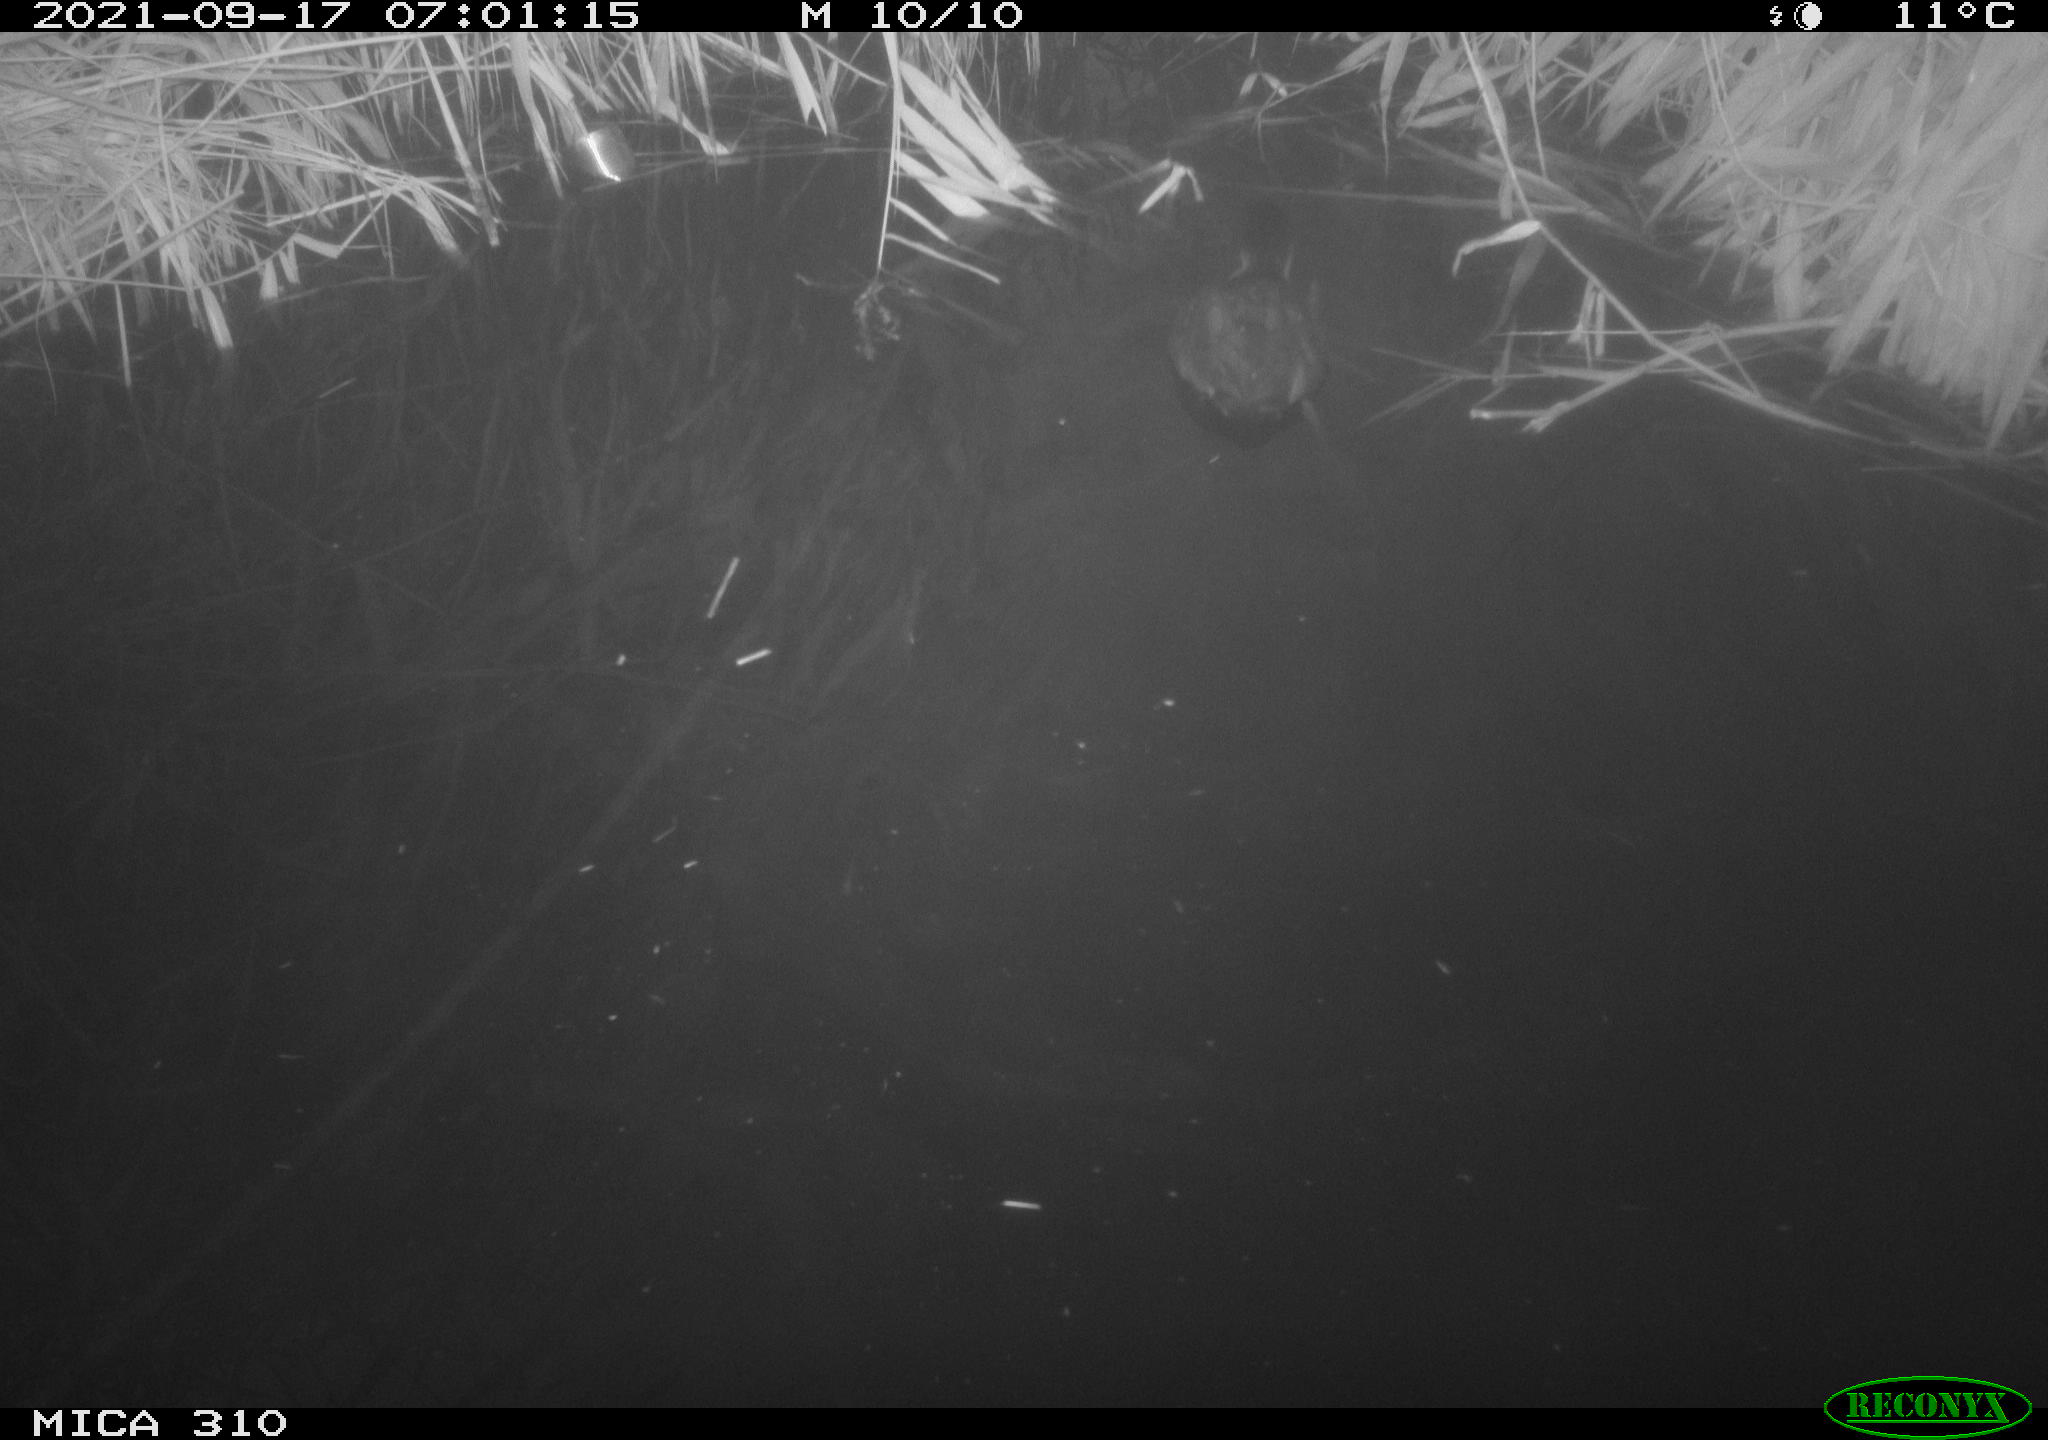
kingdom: Animalia
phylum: Chordata
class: Aves
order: Gruiformes
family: Rallidae
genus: Fulica
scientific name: Fulica atra
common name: Eurasian coot
